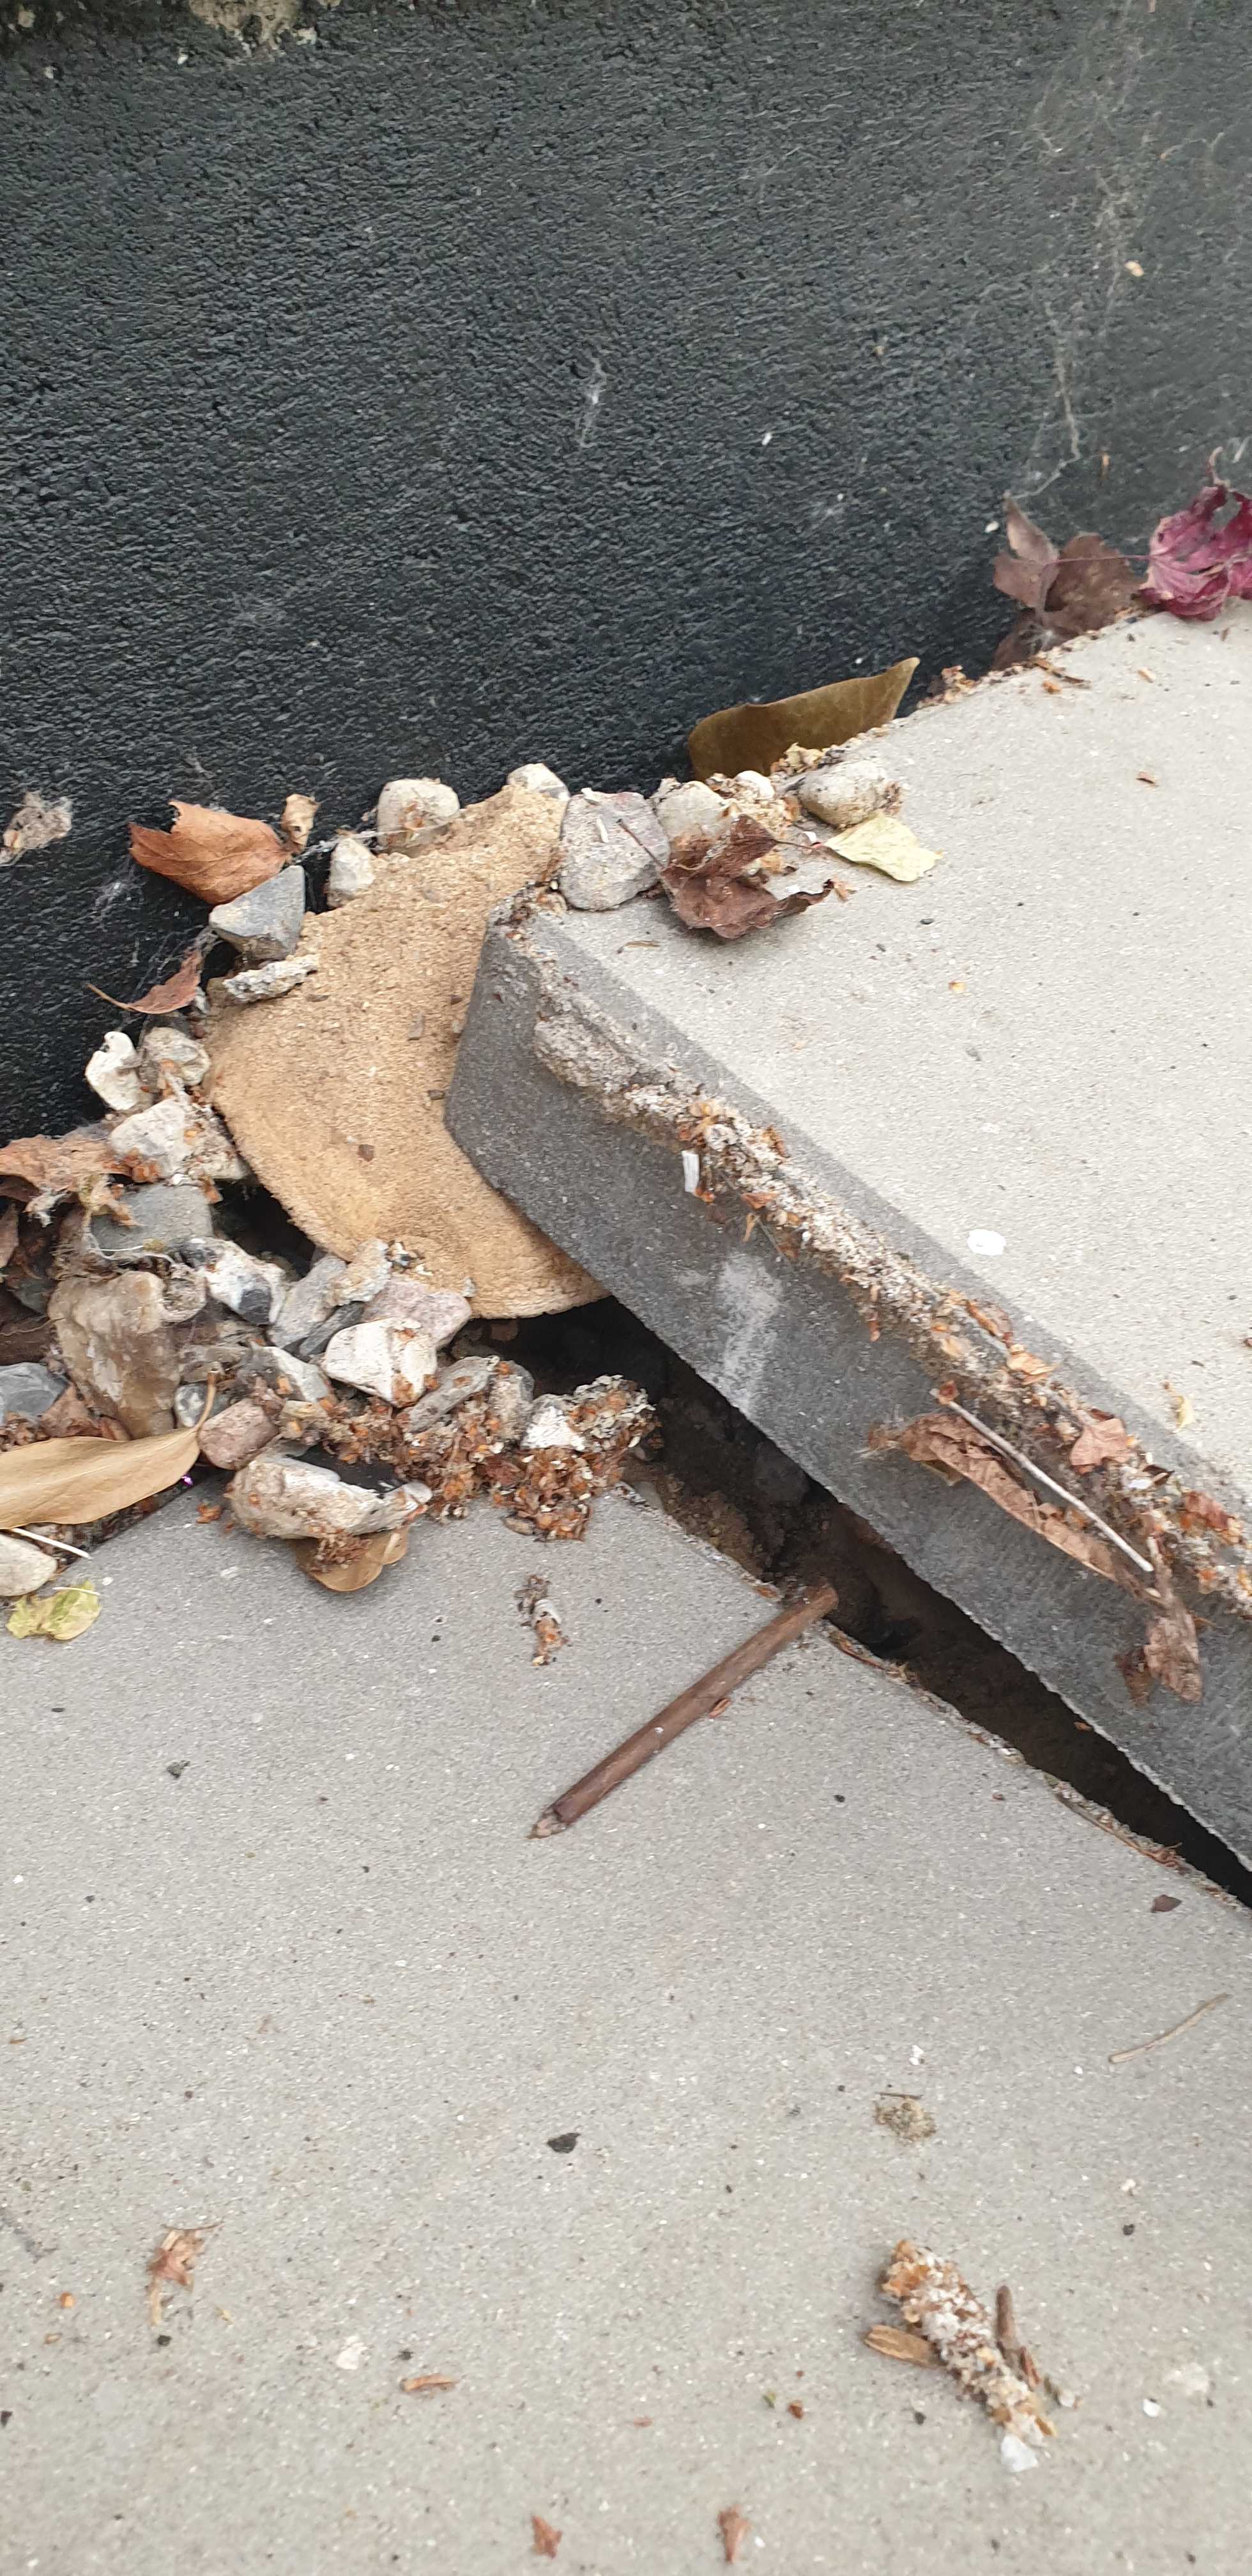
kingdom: Fungi
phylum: Basidiomycota
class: Agaricomycetes
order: Agaricales
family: Agaricaceae
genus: Agaricus
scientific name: Agaricus bitorquis
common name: vej-champignon
